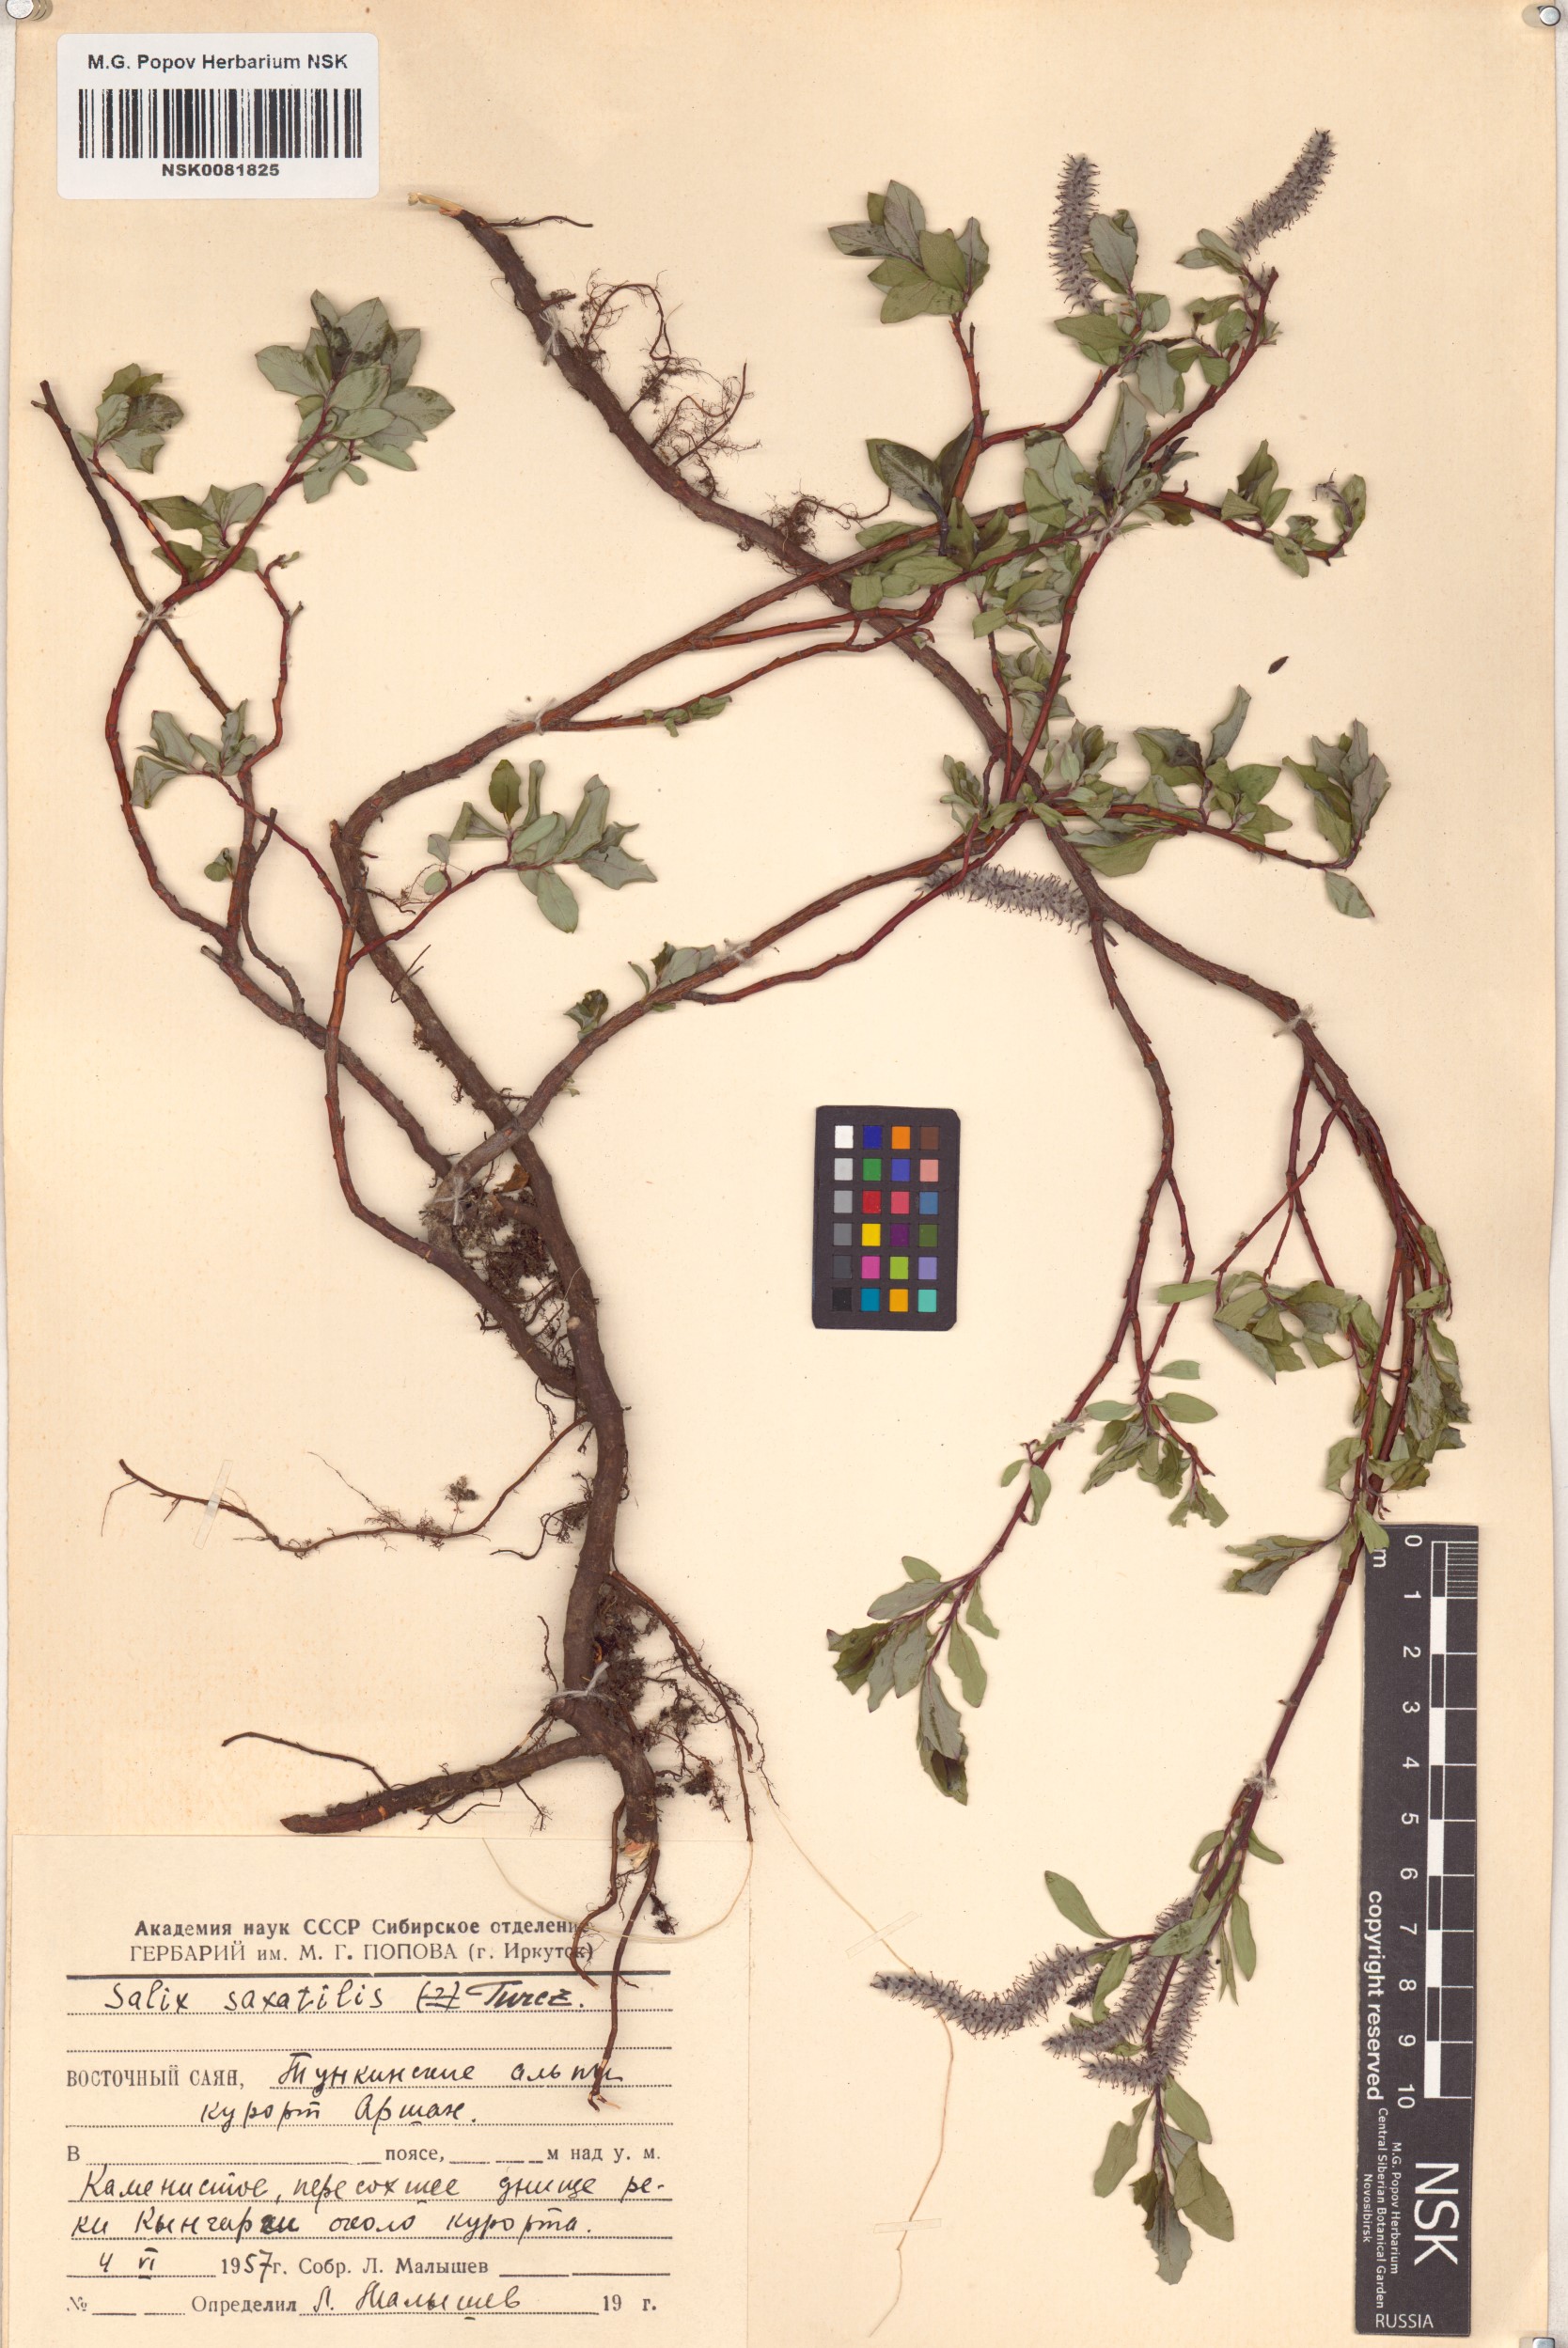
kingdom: Plantae
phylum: Tracheophyta
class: Magnoliopsida
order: Malpighiales
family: Salicaceae
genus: Salix
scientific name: Salix saxatilis
